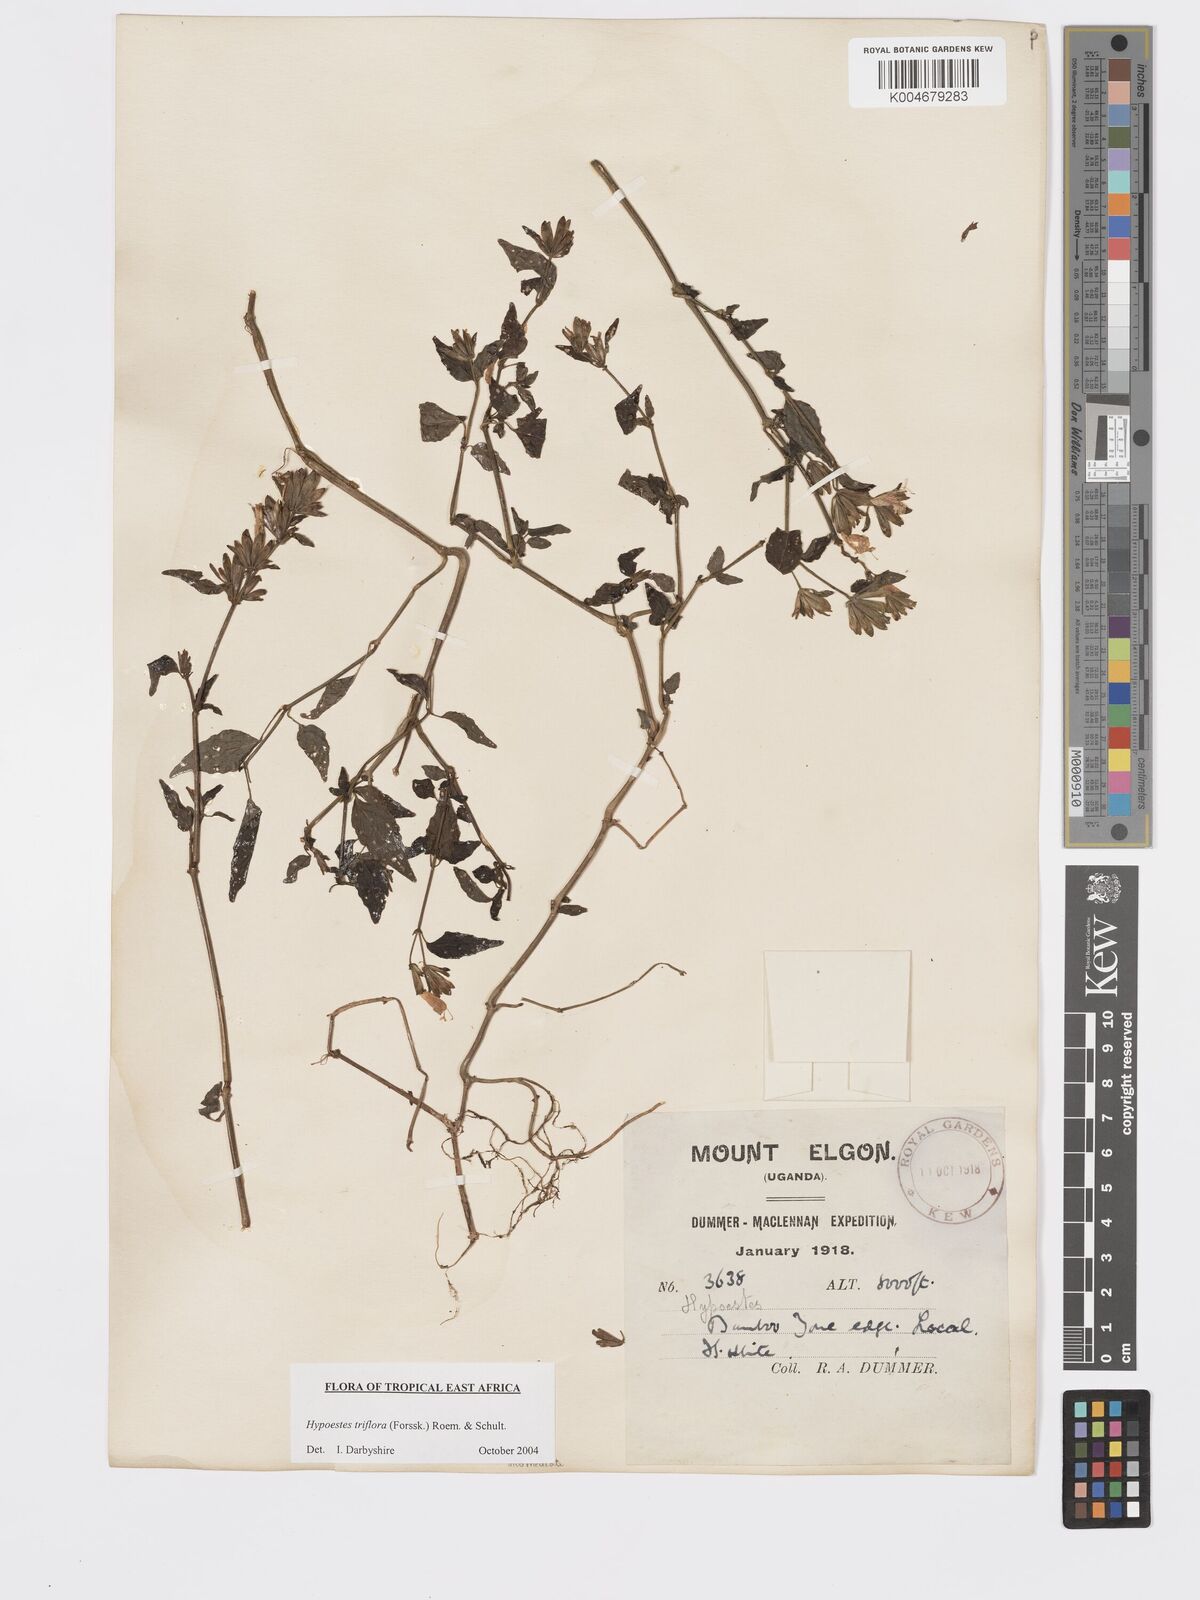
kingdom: Plantae
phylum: Tracheophyta
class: Magnoliopsida
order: Lamiales
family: Acanthaceae
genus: Hypoestes
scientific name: Hypoestes triflora
